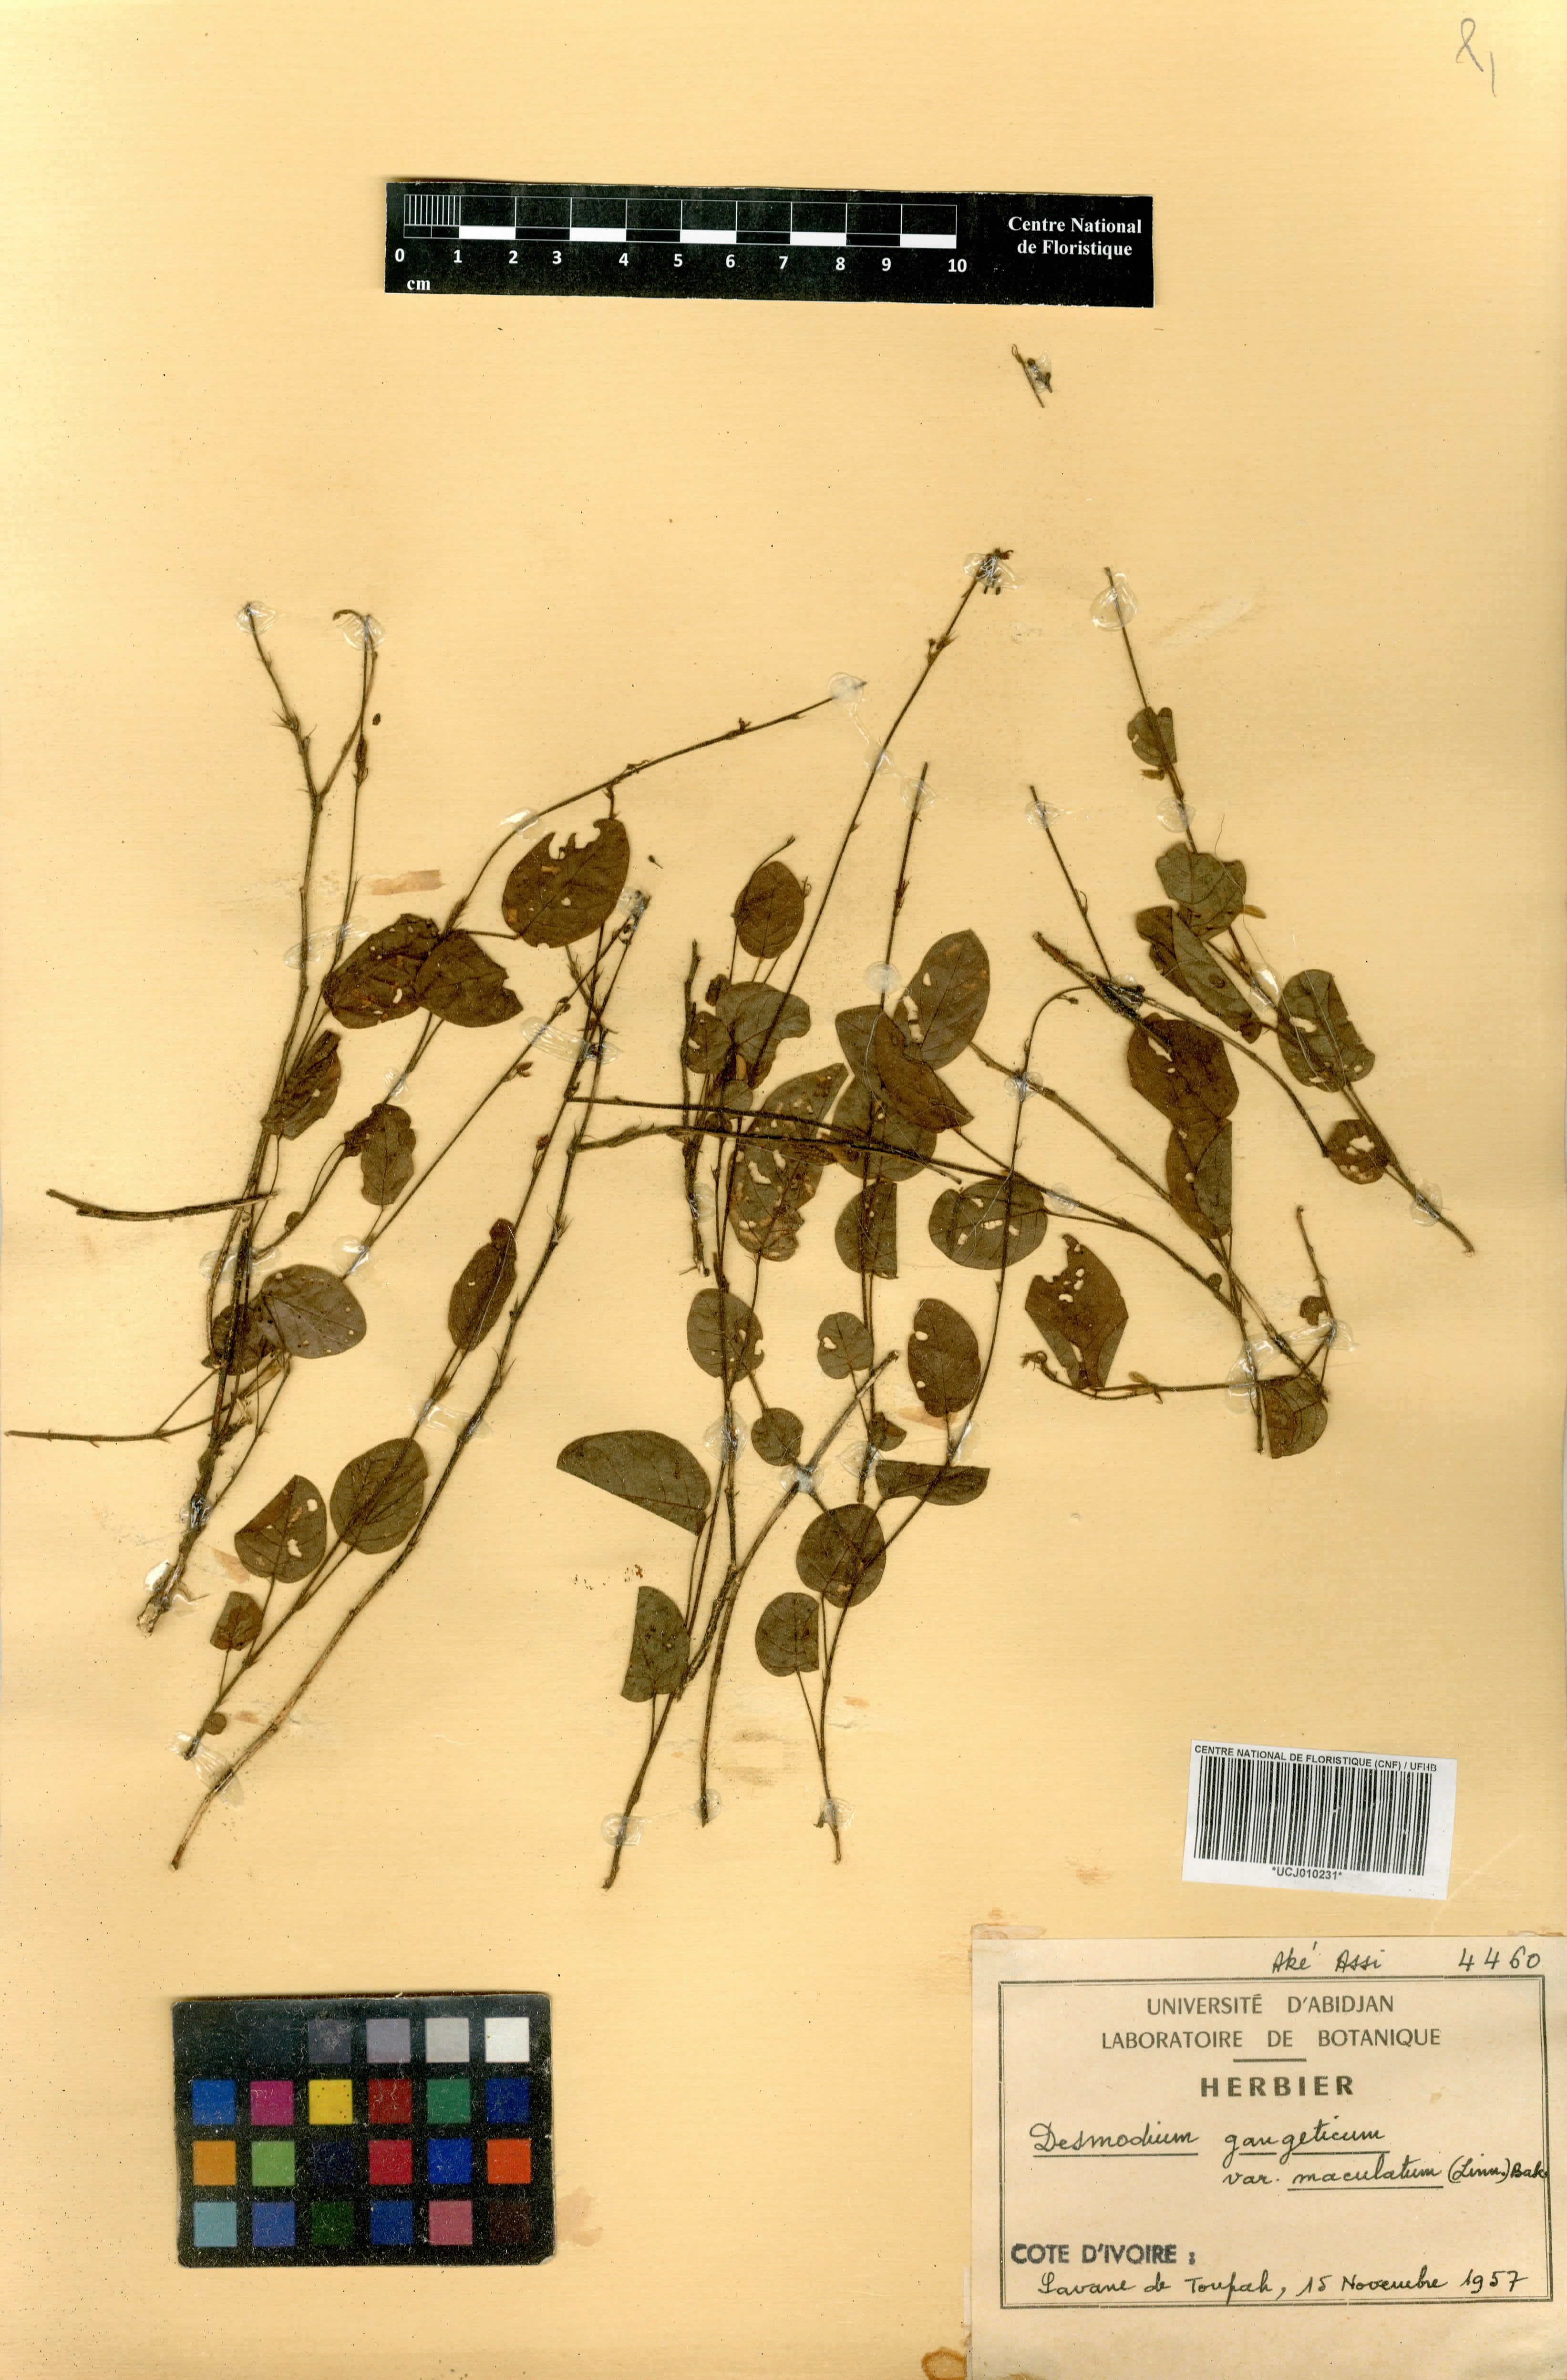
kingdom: Plantae
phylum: Tracheophyta
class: Magnoliopsida
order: Fabales
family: Fabaceae
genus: Pleurolobus
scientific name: Pleurolobus gangeticus
